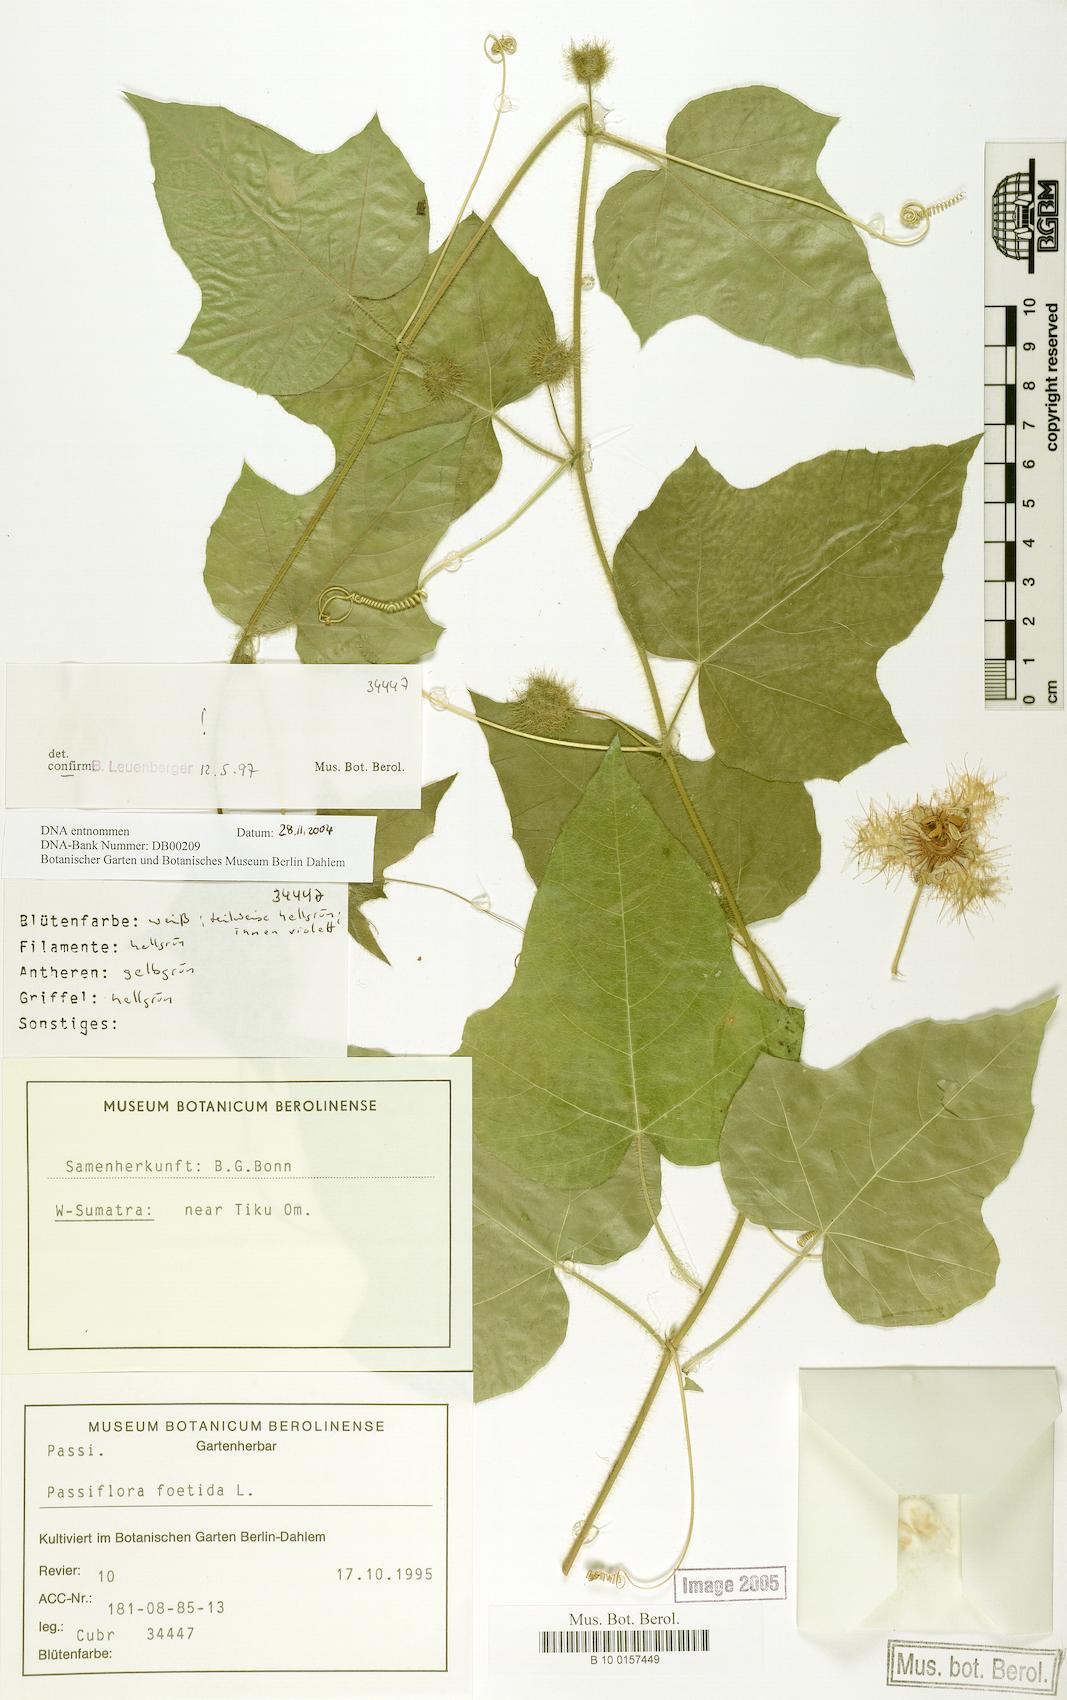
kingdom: Plantae
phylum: Tracheophyta
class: Magnoliopsida
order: Malpighiales
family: Passifloraceae
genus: Passiflora
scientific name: Passiflora foetida
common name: Fetid passionflower
